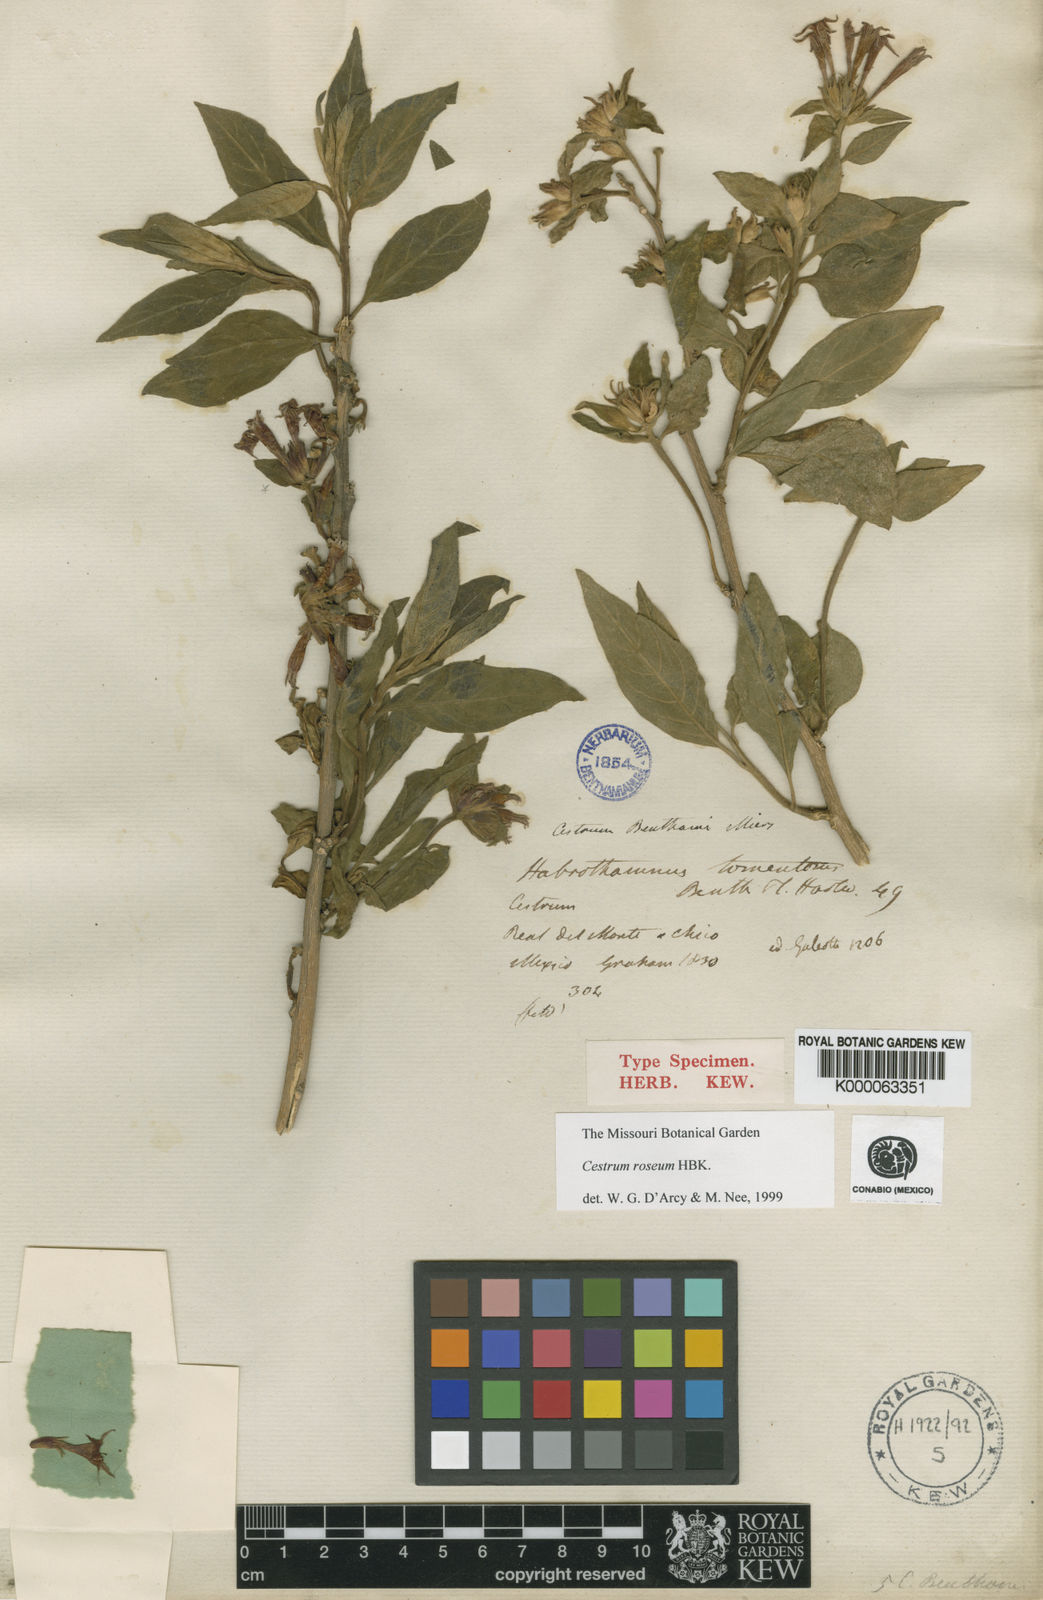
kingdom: Plantae
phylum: Tracheophyta
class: Magnoliopsida
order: Solanales
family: Solanaceae
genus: Cestrum
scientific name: Cestrum
